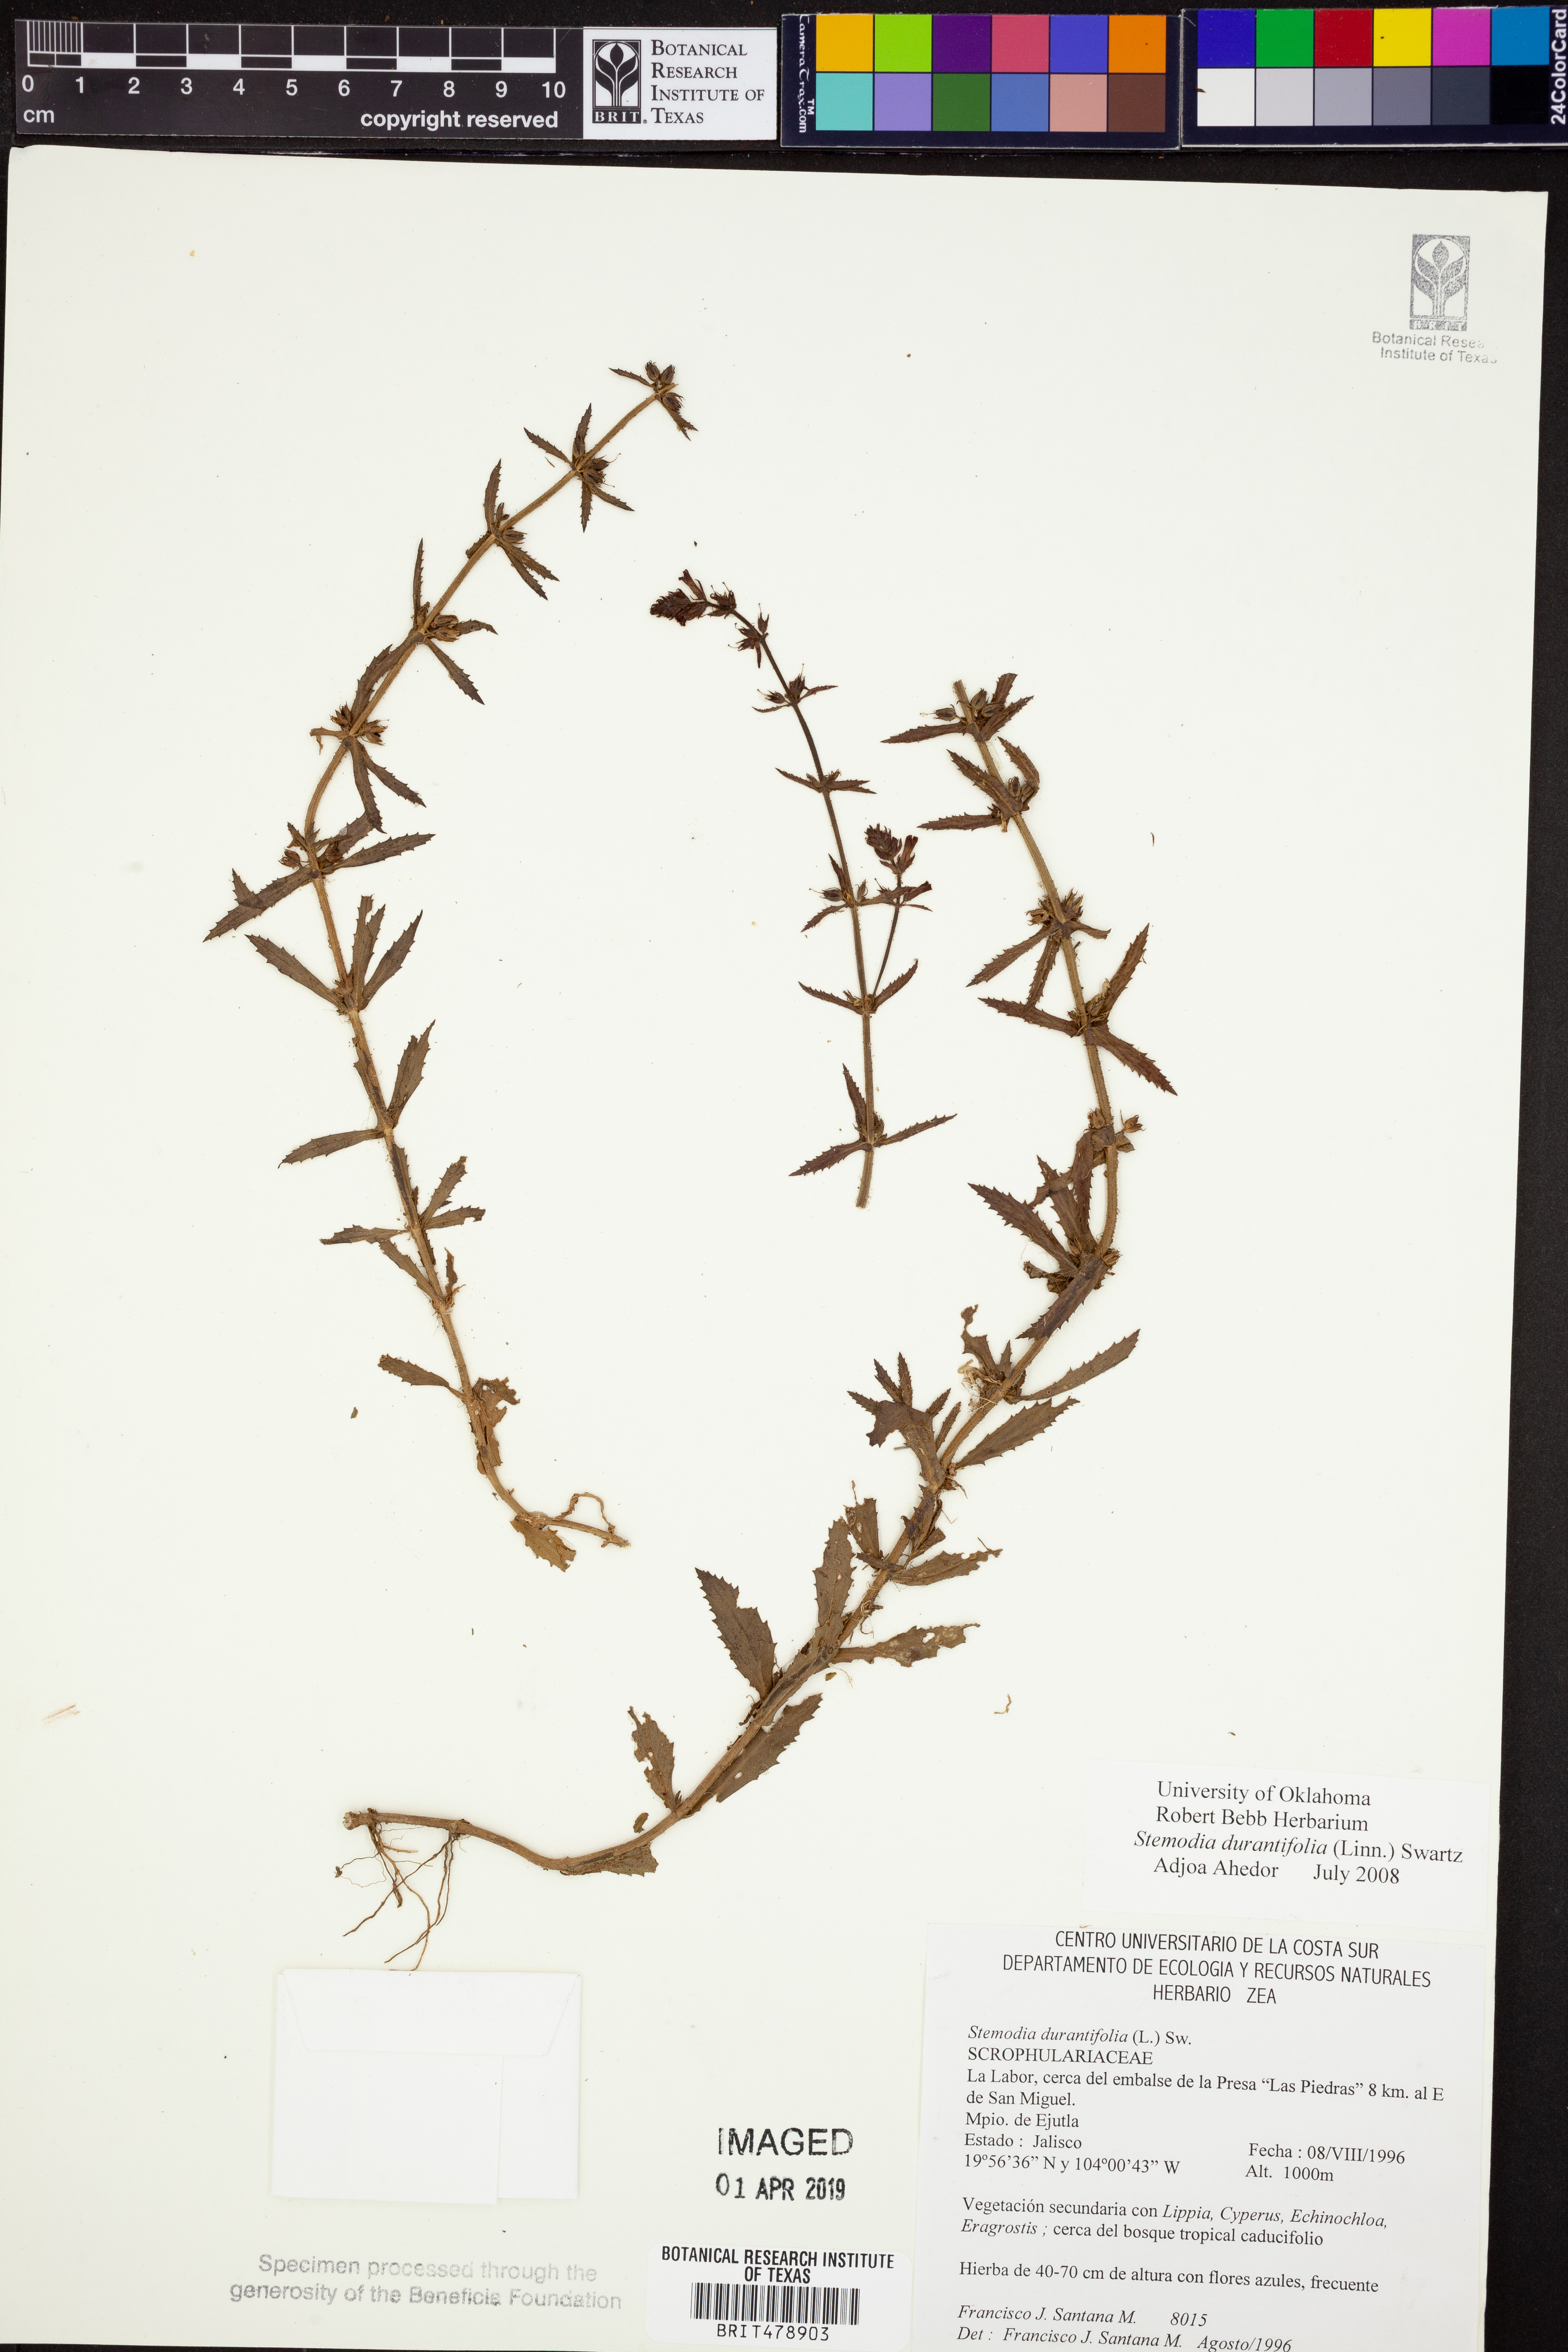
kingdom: Plantae
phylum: Tracheophyta
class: Magnoliopsida
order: Lamiales
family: Plantaginaceae
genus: Stemodia
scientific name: Stemodia durantifolia
